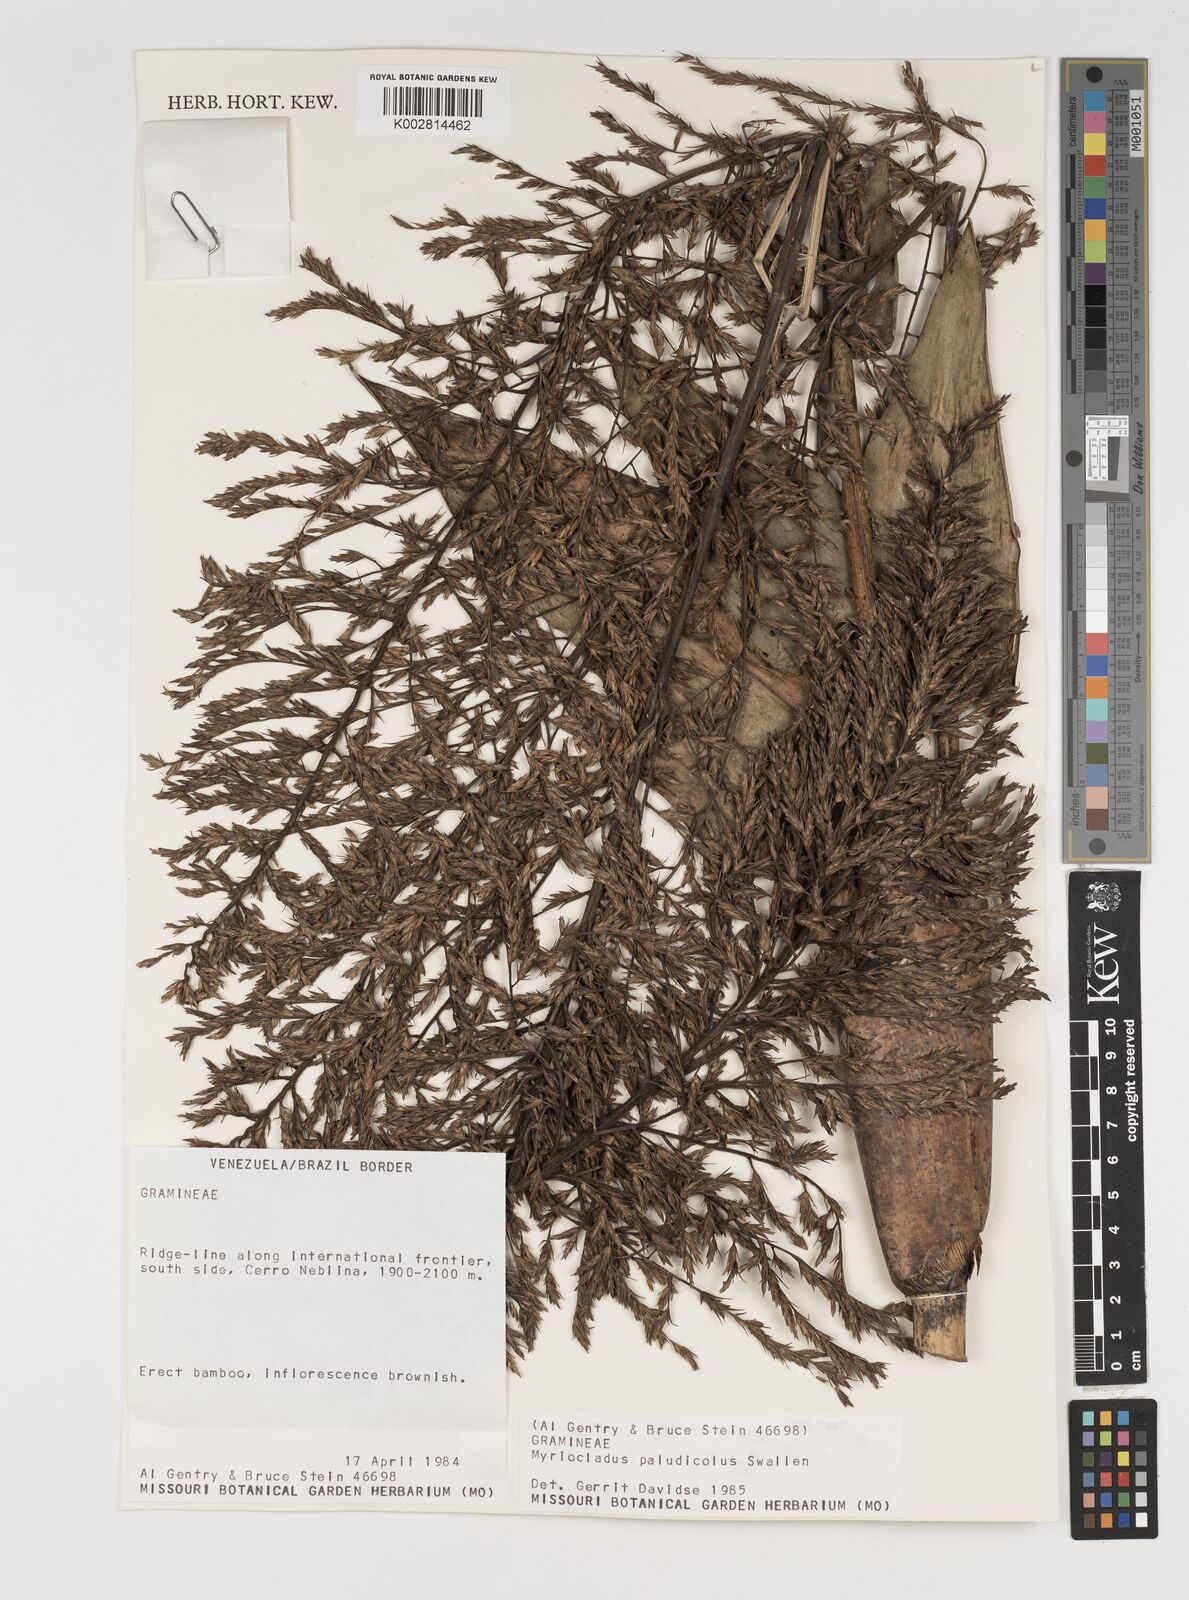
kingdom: Plantae
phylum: Tracheophyta
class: Liliopsida
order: Poales
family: Poaceae
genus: Myriocladus
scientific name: Myriocladus paludicola
